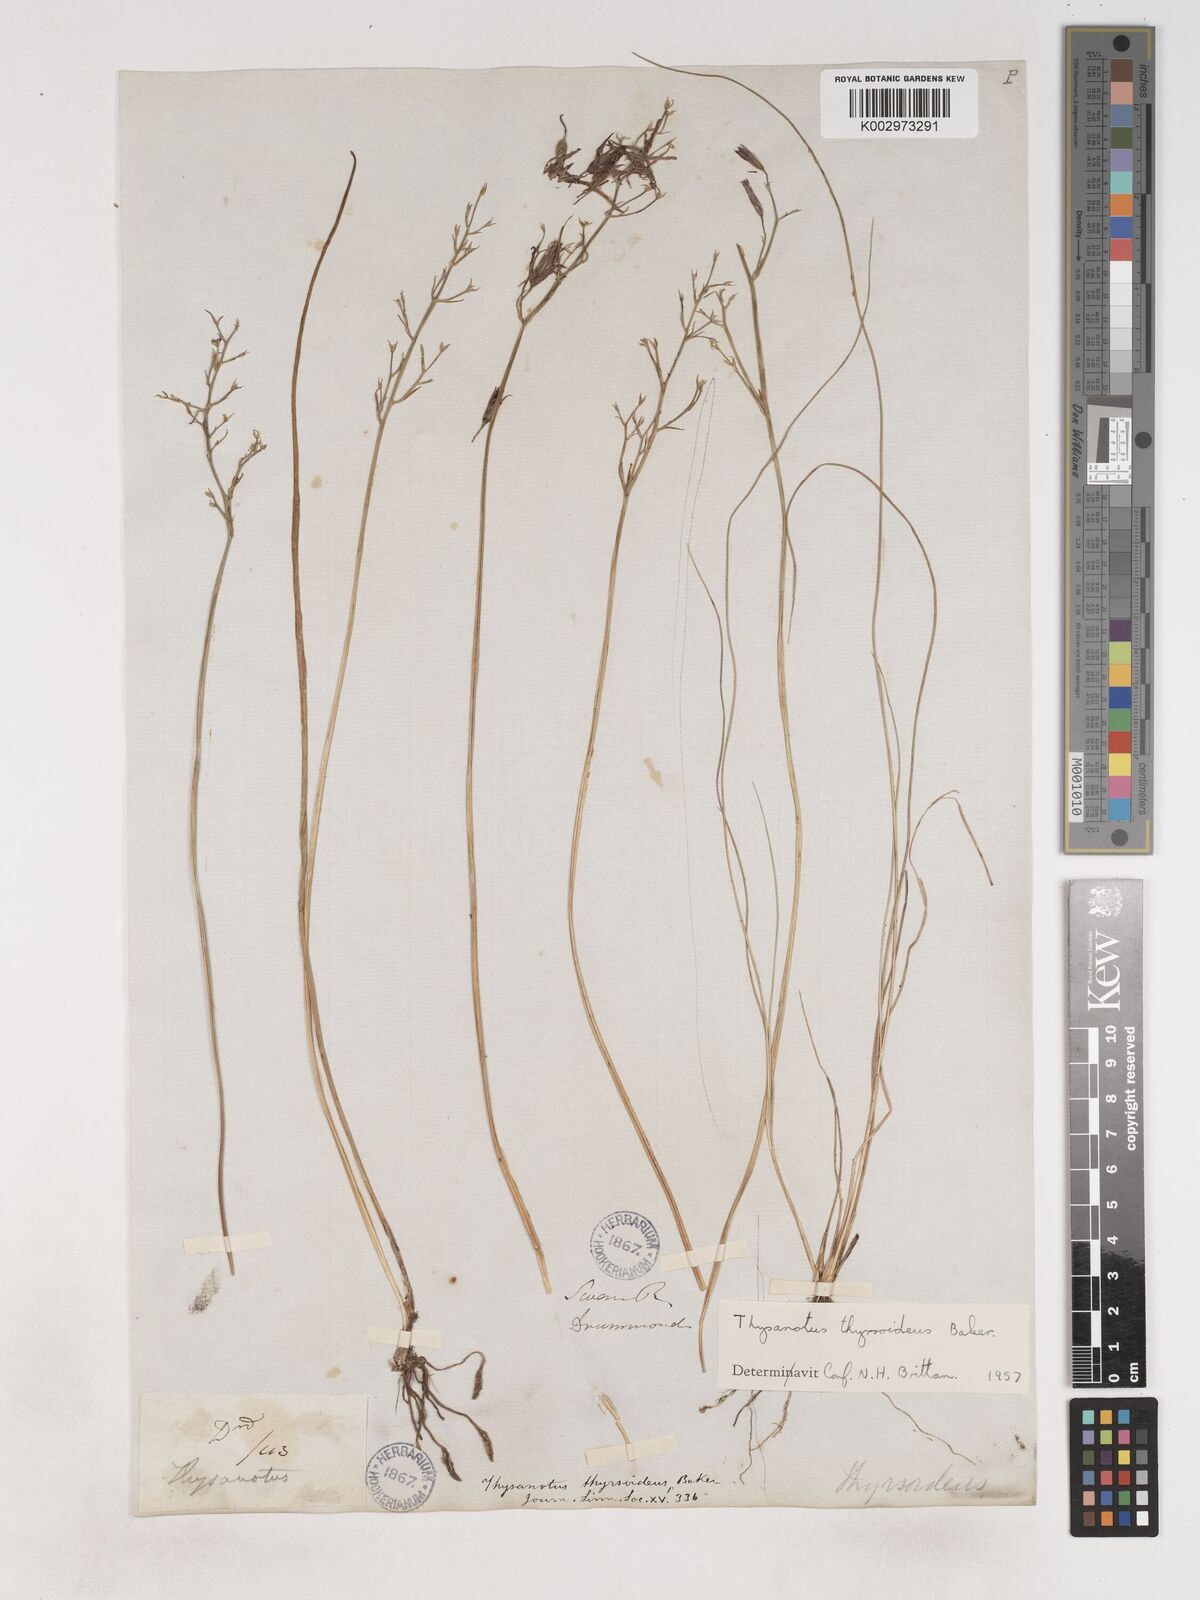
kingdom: Plantae
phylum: Tracheophyta
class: Liliopsida
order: Asparagales
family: Asparagaceae
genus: Thysanotus
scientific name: Thysanotus thyrsoideus
